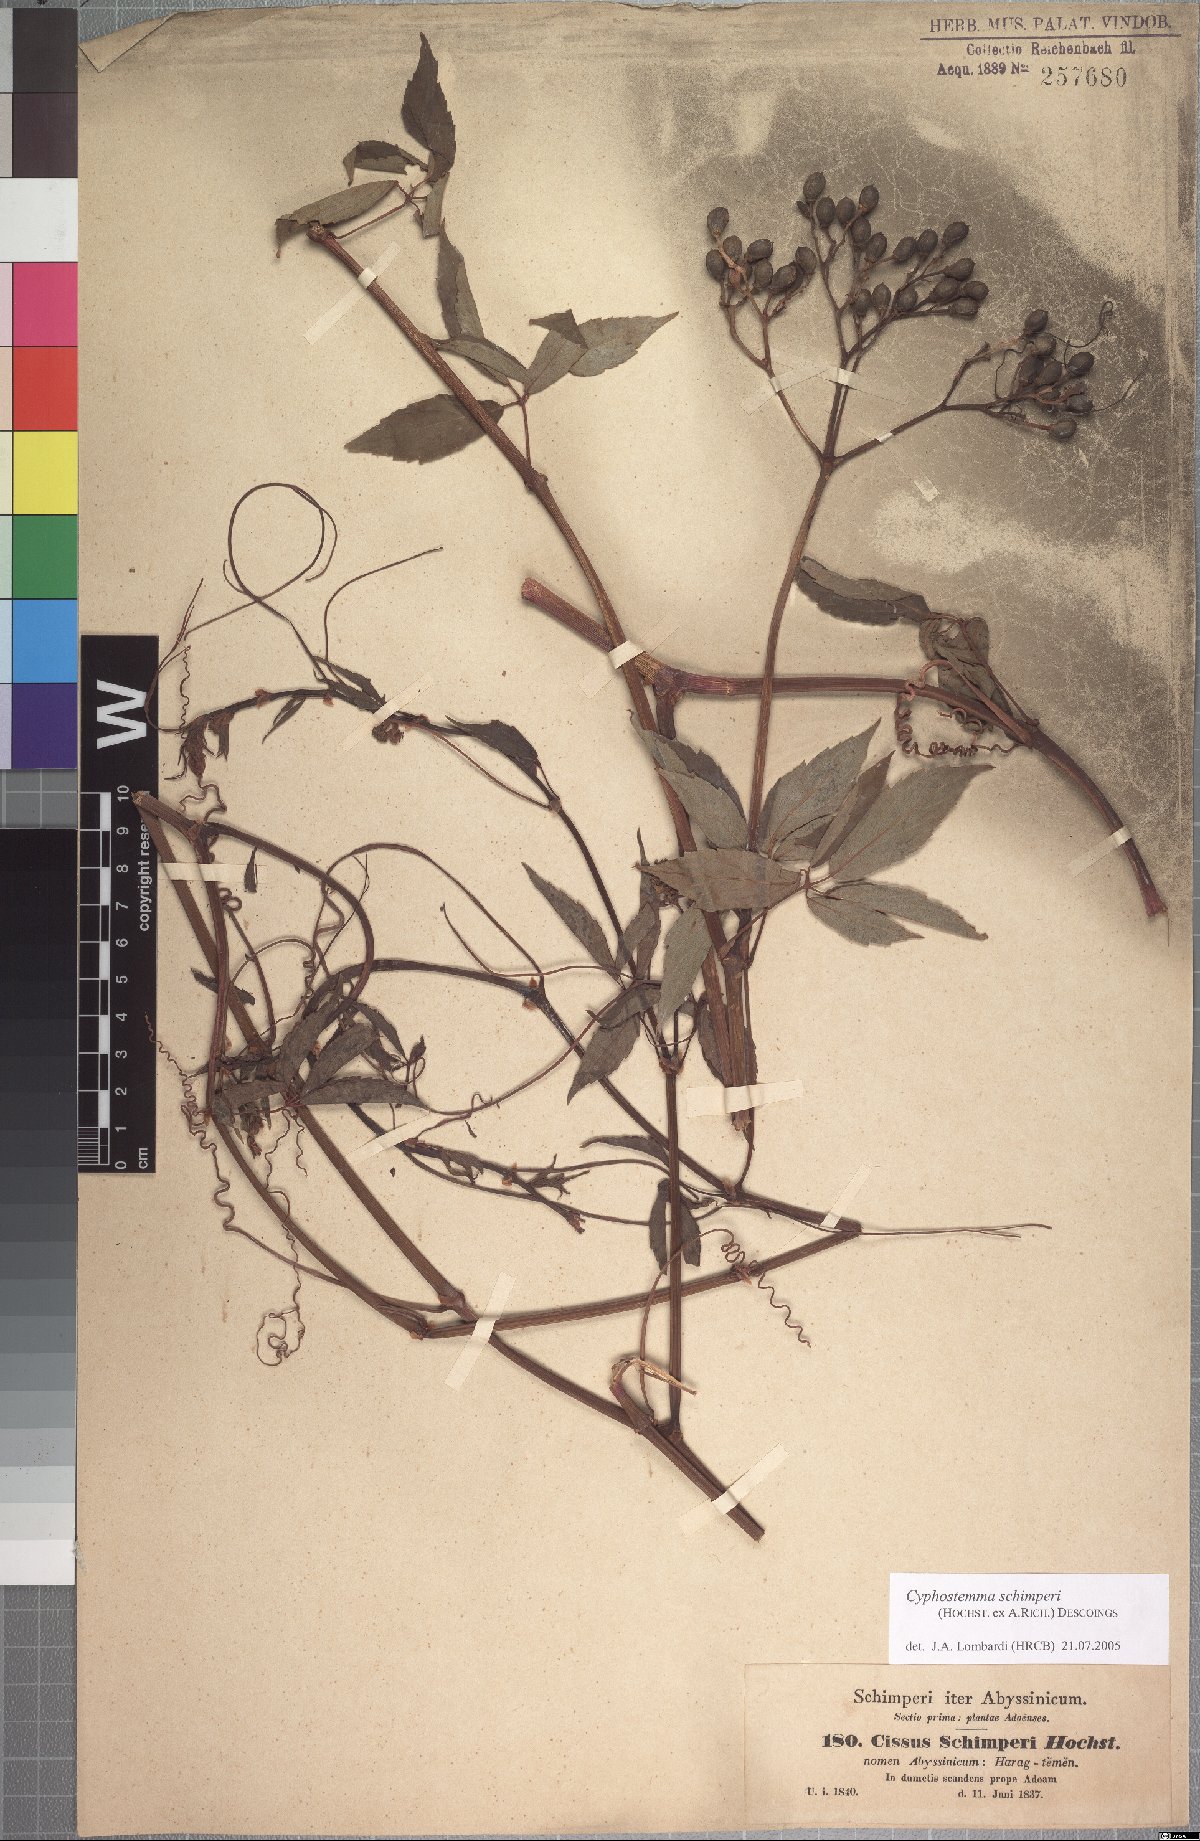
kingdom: Plantae
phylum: Tracheophyta
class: Magnoliopsida
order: Vitales
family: Vitaceae
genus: Cyphostemma
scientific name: Cyphostemma oxyphyllum
